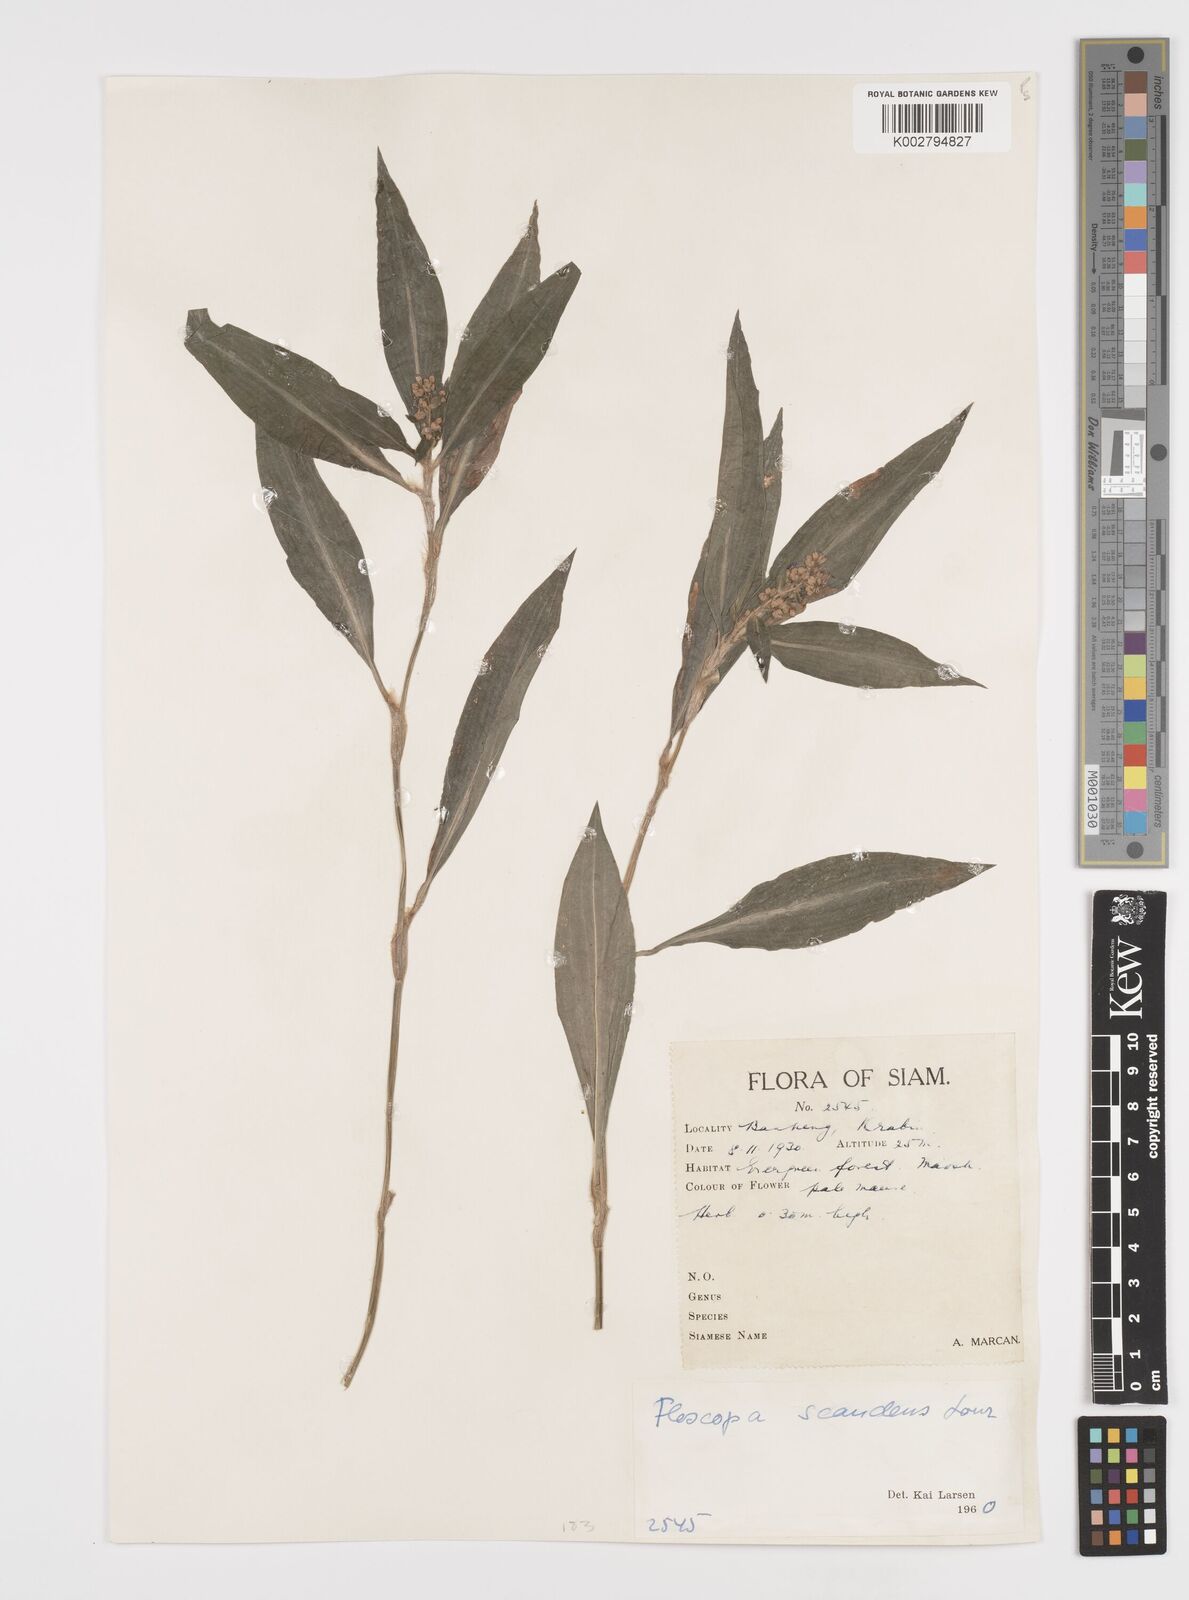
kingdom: Plantae
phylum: Tracheophyta
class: Liliopsida
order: Commelinales
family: Commelinaceae
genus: Floscopa
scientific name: Floscopa scandens
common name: Climbing flower cup
